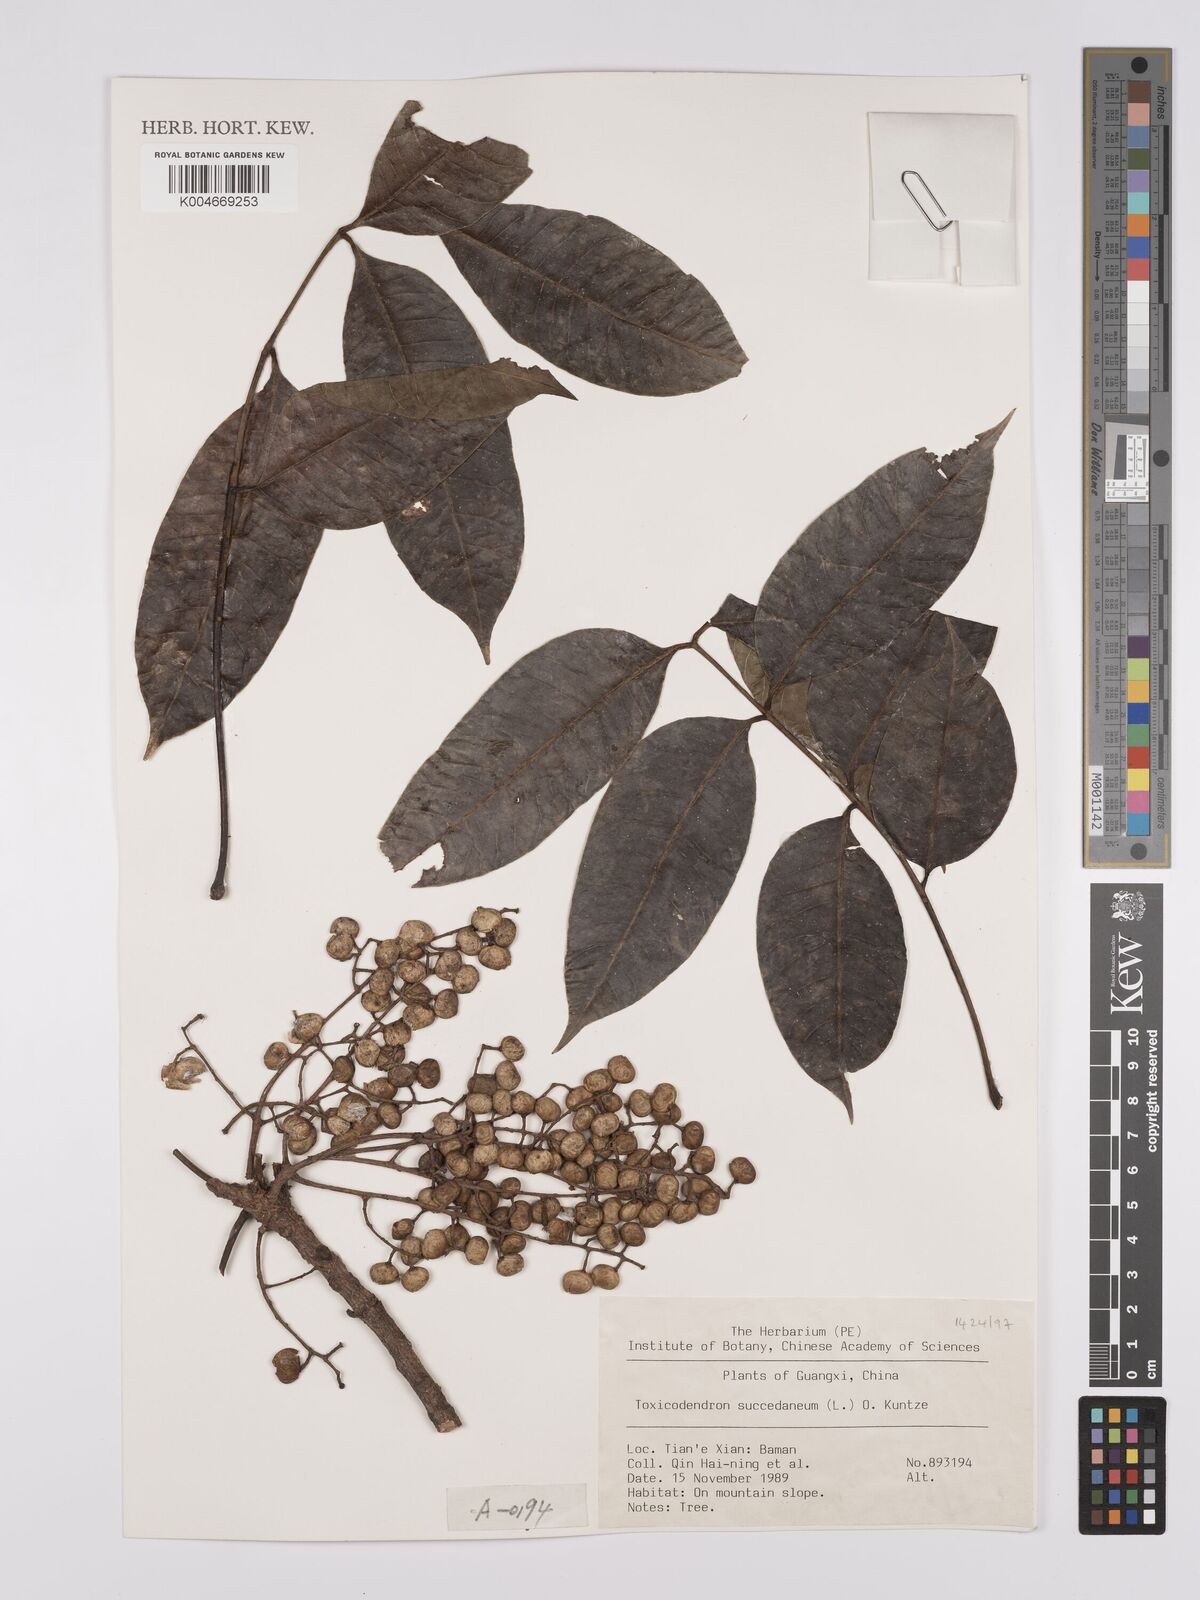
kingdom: Plantae
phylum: Tracheophyta
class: Magnoliopsida
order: Sapindales
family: Anacardiaceae
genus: Toxicodendron
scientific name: Toxicodendron succedaneum
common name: Wax tree
